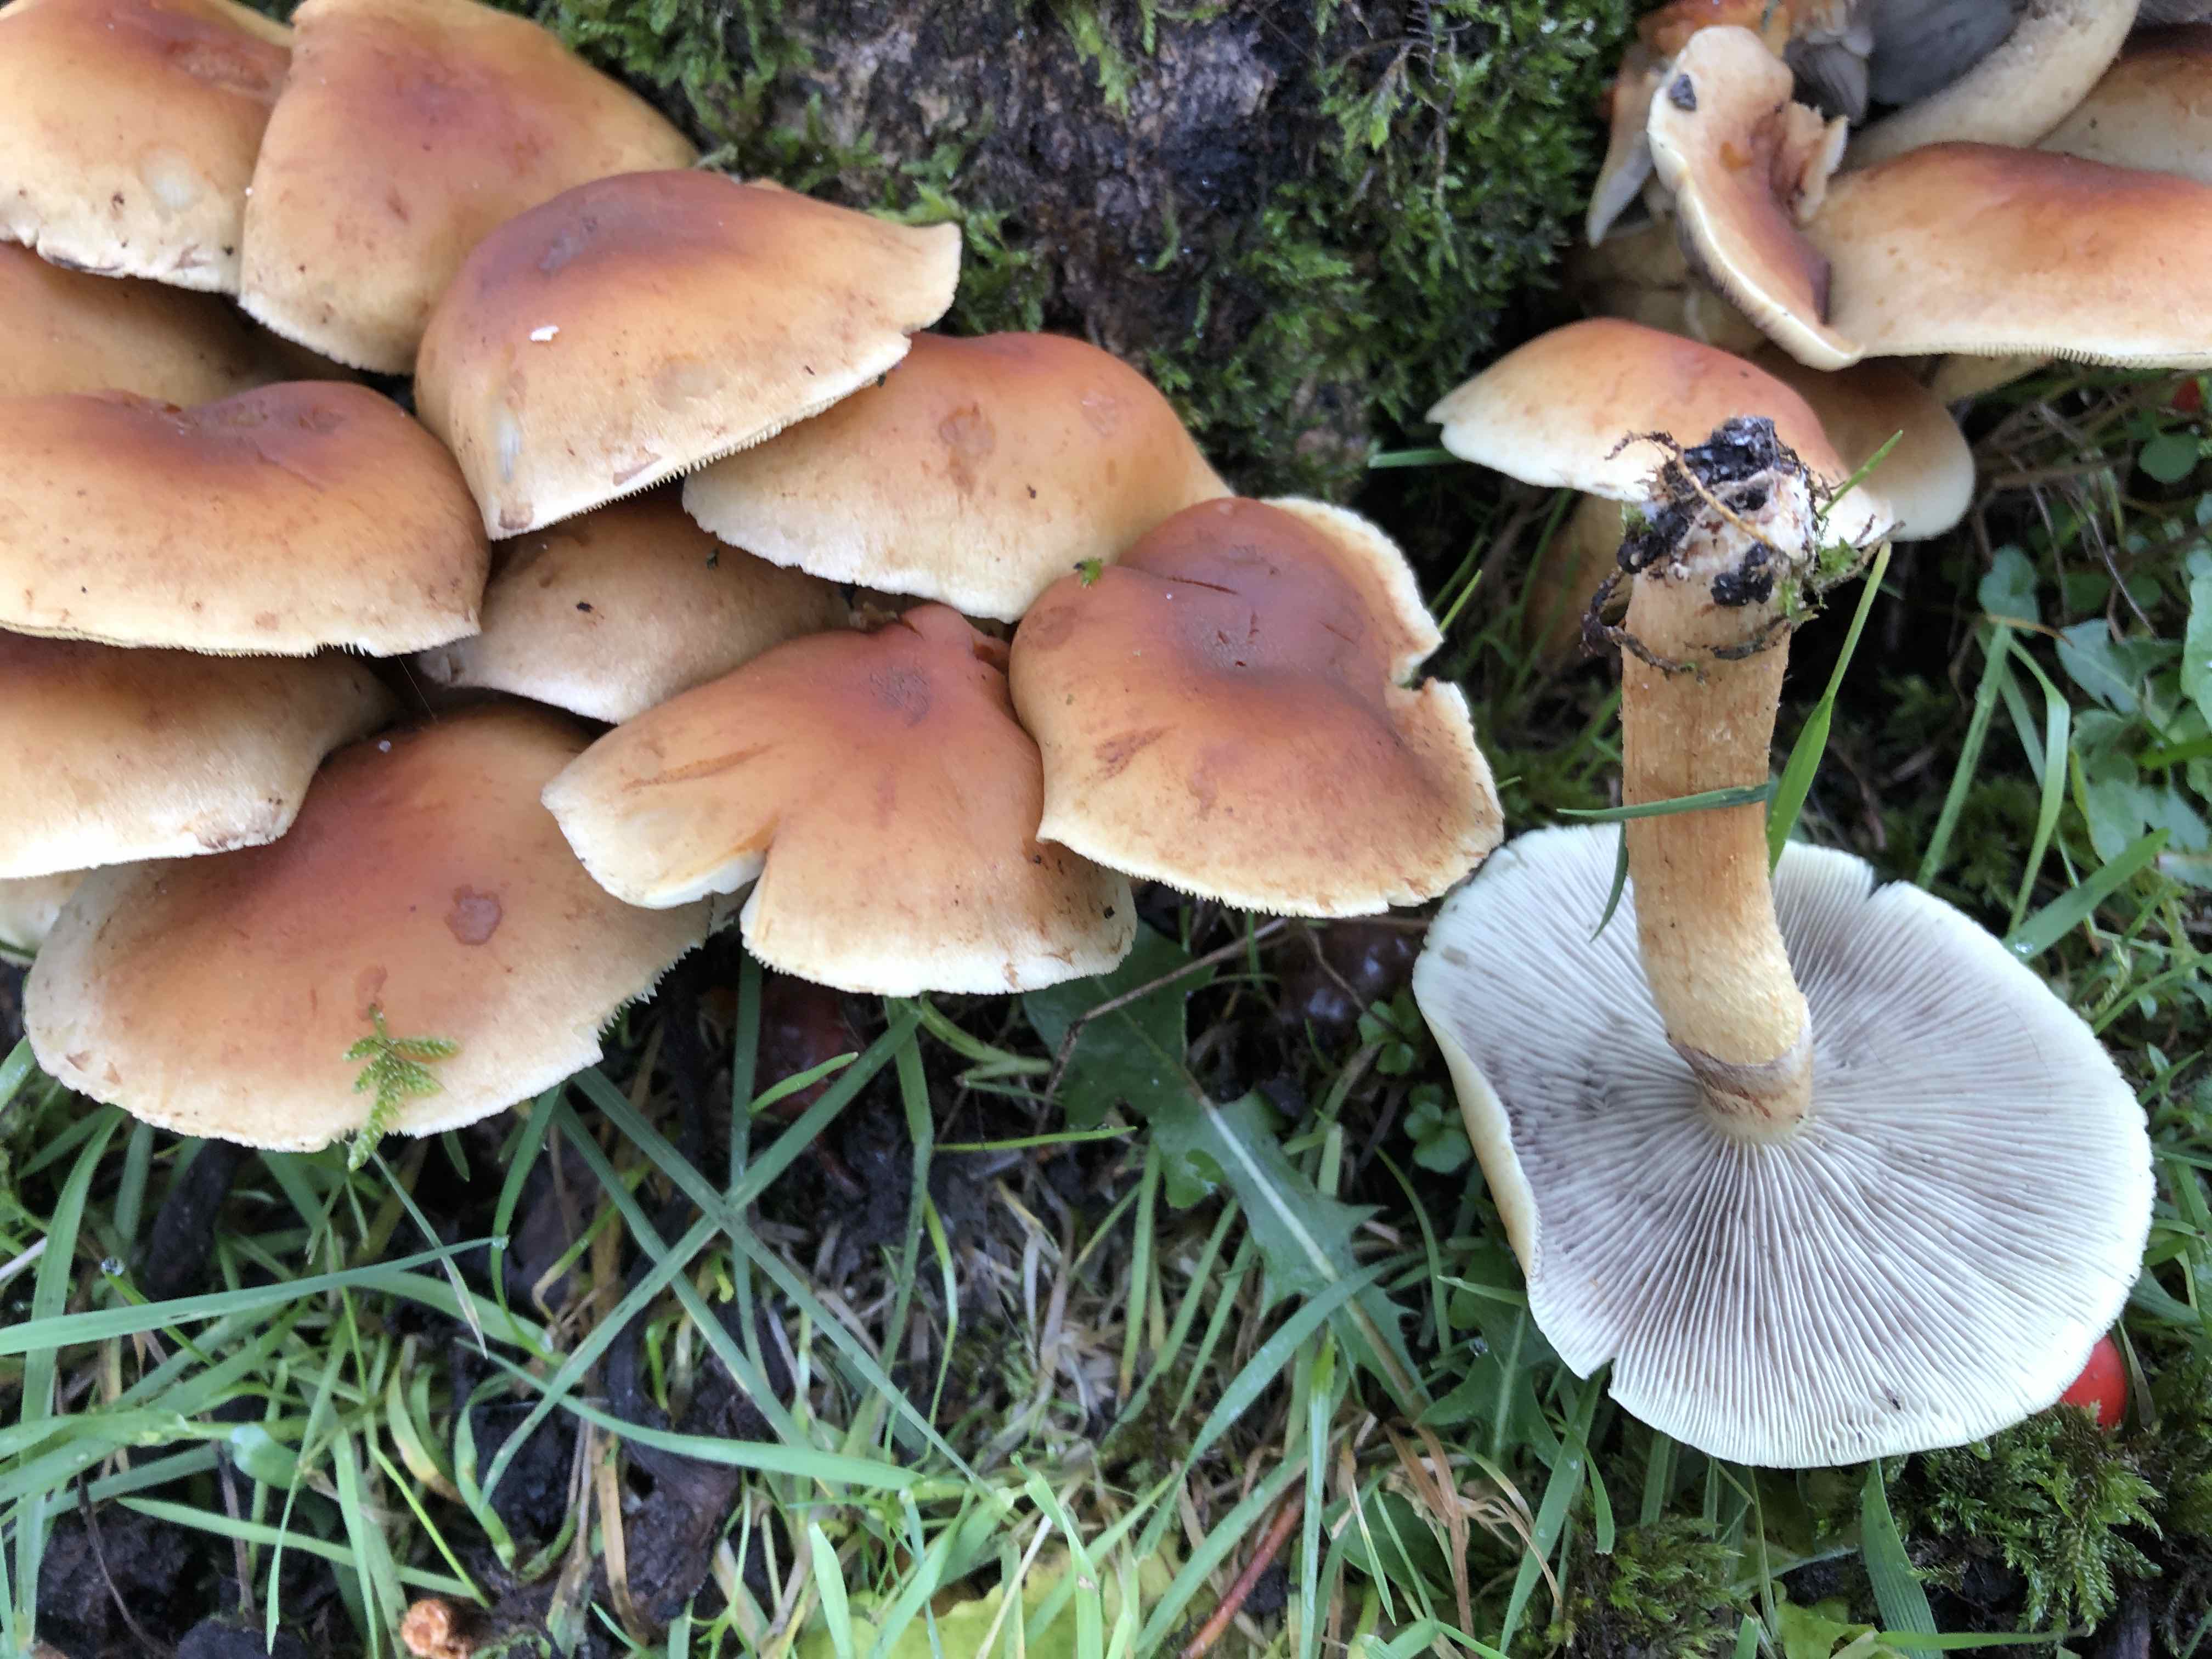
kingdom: Fungi
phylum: Basidiomycota
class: Agaricomycetes
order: Agaricales
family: Strophariaceae
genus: Hypholoma
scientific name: Hypholoma fasciculare
